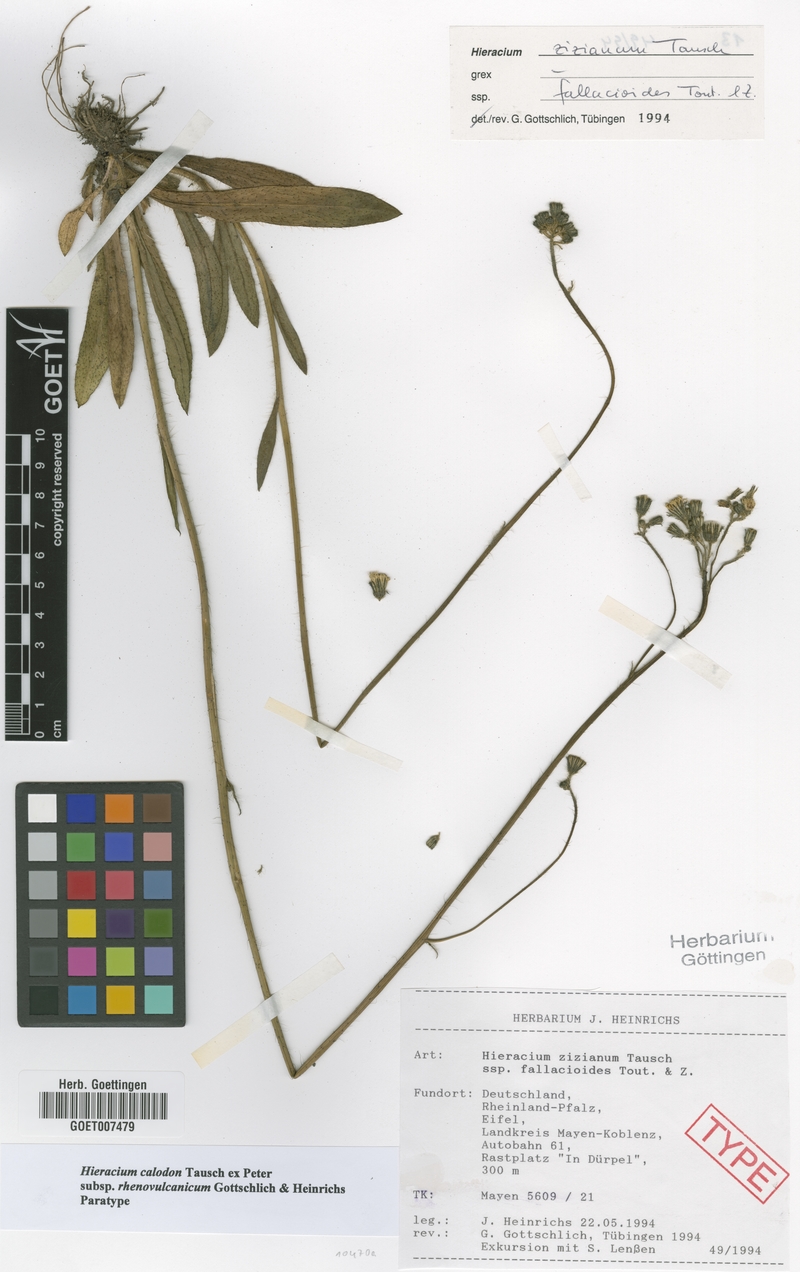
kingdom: Plantae
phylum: Tracheophyta
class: Magnoliopsida
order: Asterales
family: Asteraceae
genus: Pilosella
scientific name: Pilosella calodon
